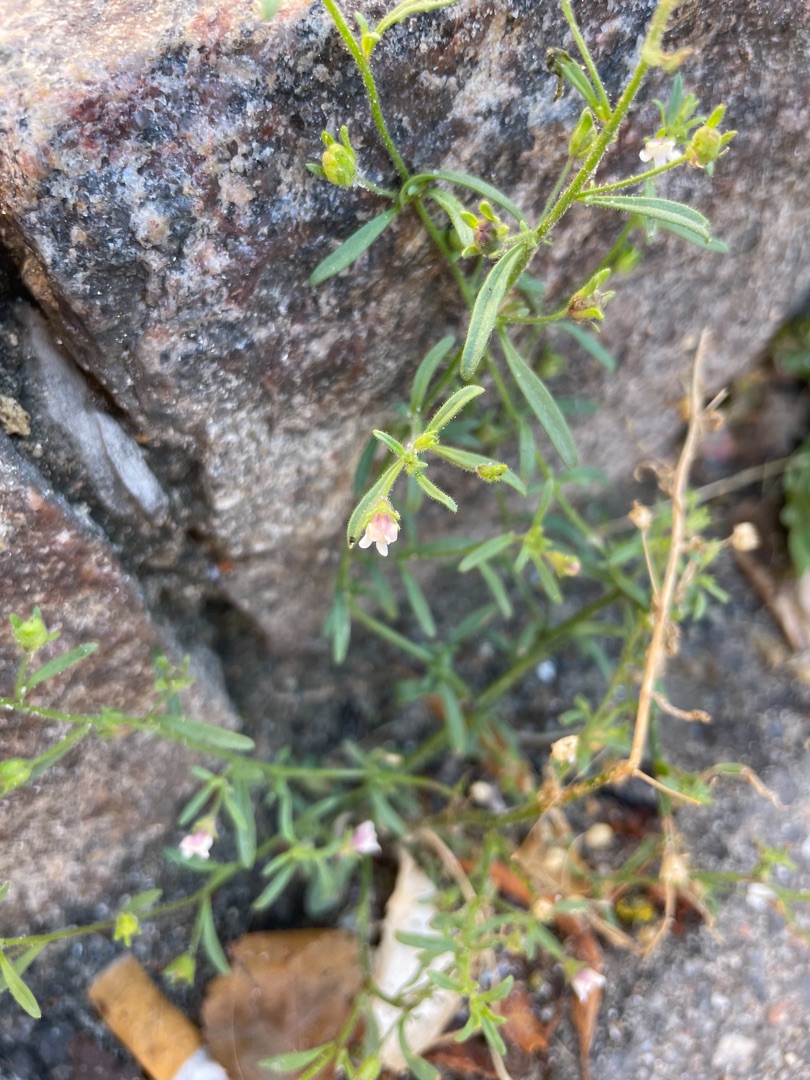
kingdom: Plantae
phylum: Tracheophyta
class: Magnoliopsida
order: Lamiales
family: Plantaginaceae
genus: Chaenorhinum
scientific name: Chaenorhinum minus
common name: Liden torskemund
